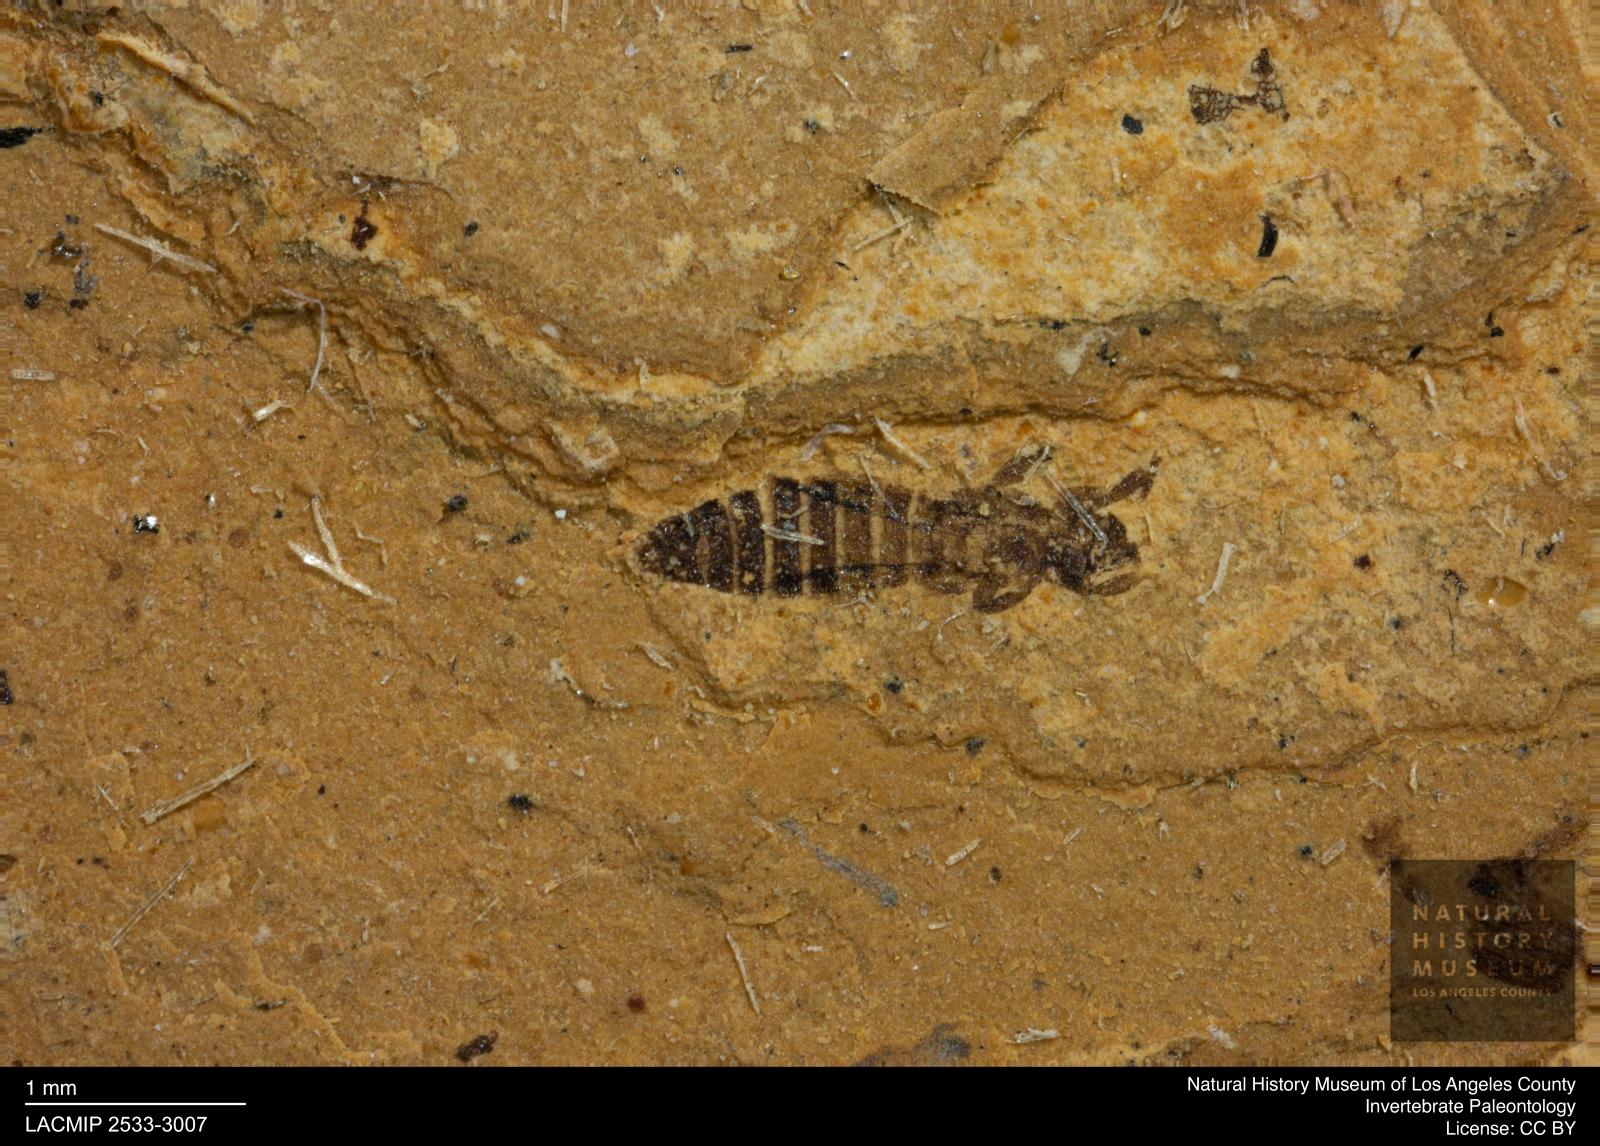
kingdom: Animalia
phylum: Arthropoda
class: Insecta
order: Thysanoptera
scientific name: Thysanoptera
